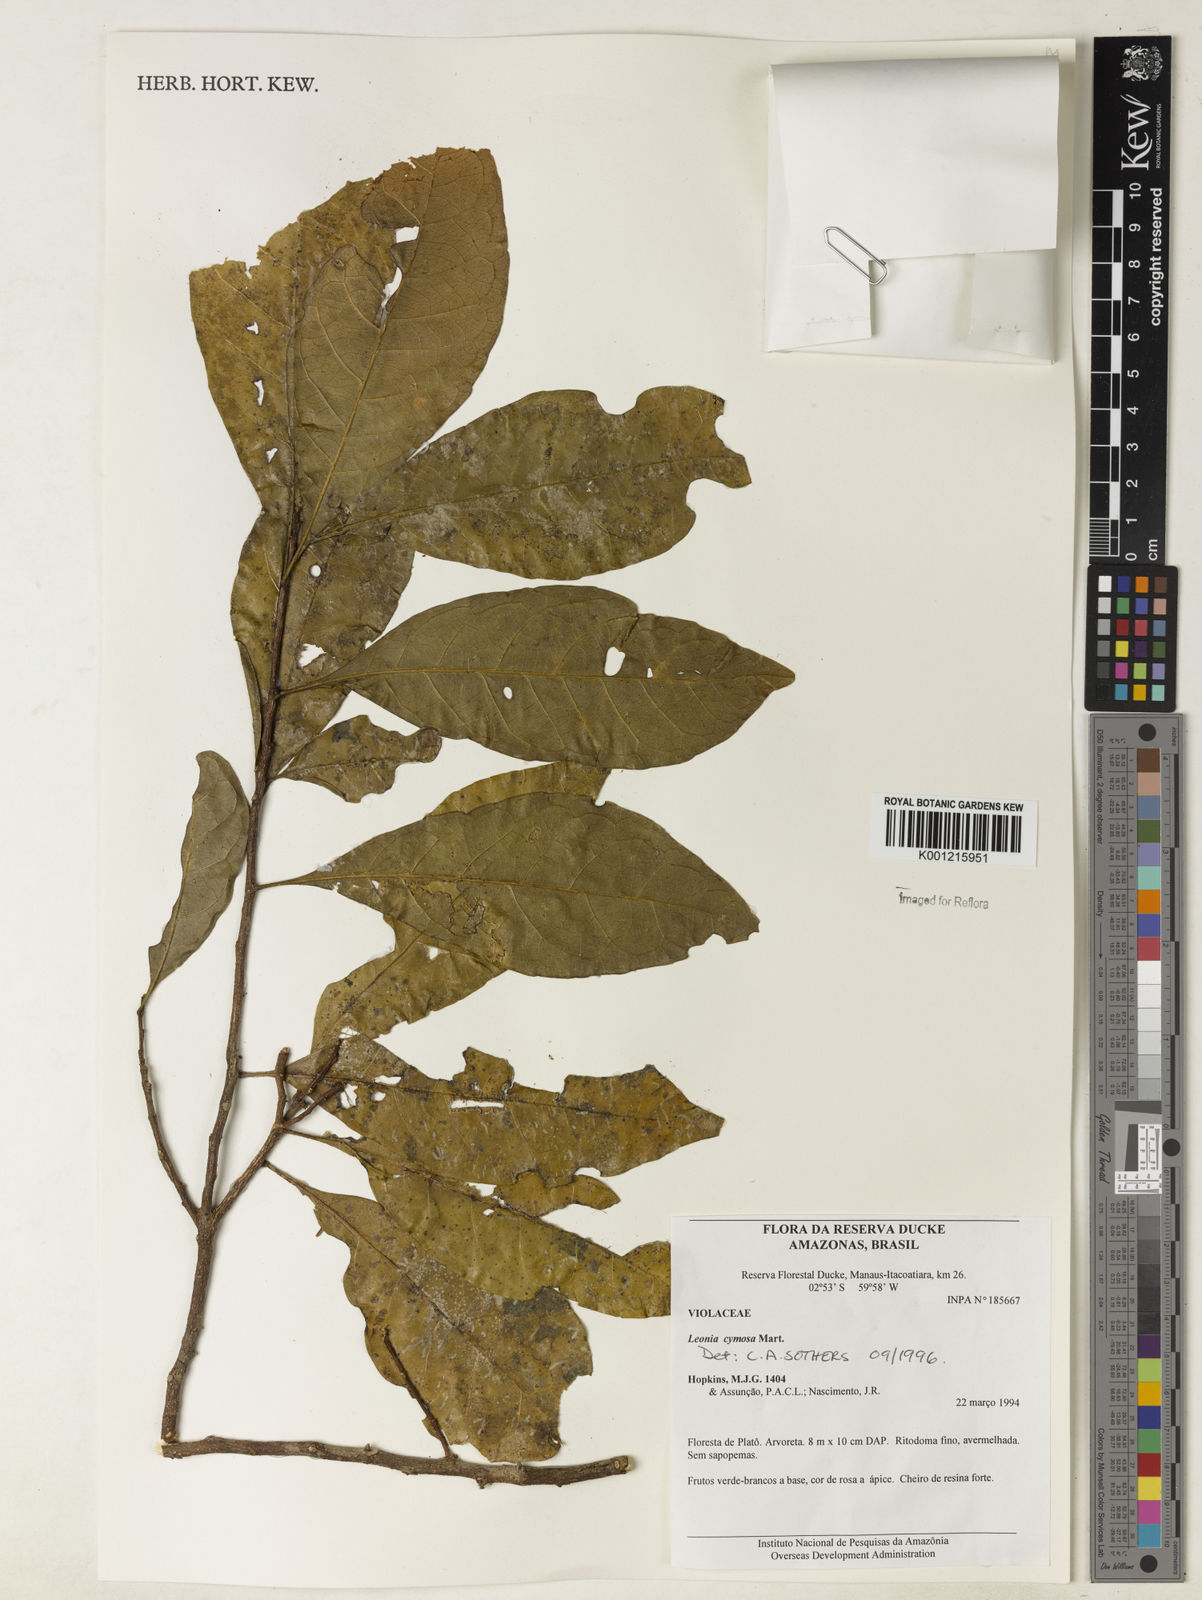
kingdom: Plantae
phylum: Tracheophyta
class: Magnoliopsida
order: Malpighiales
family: Violaceae
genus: Leonia
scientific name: Leonia cymosa
